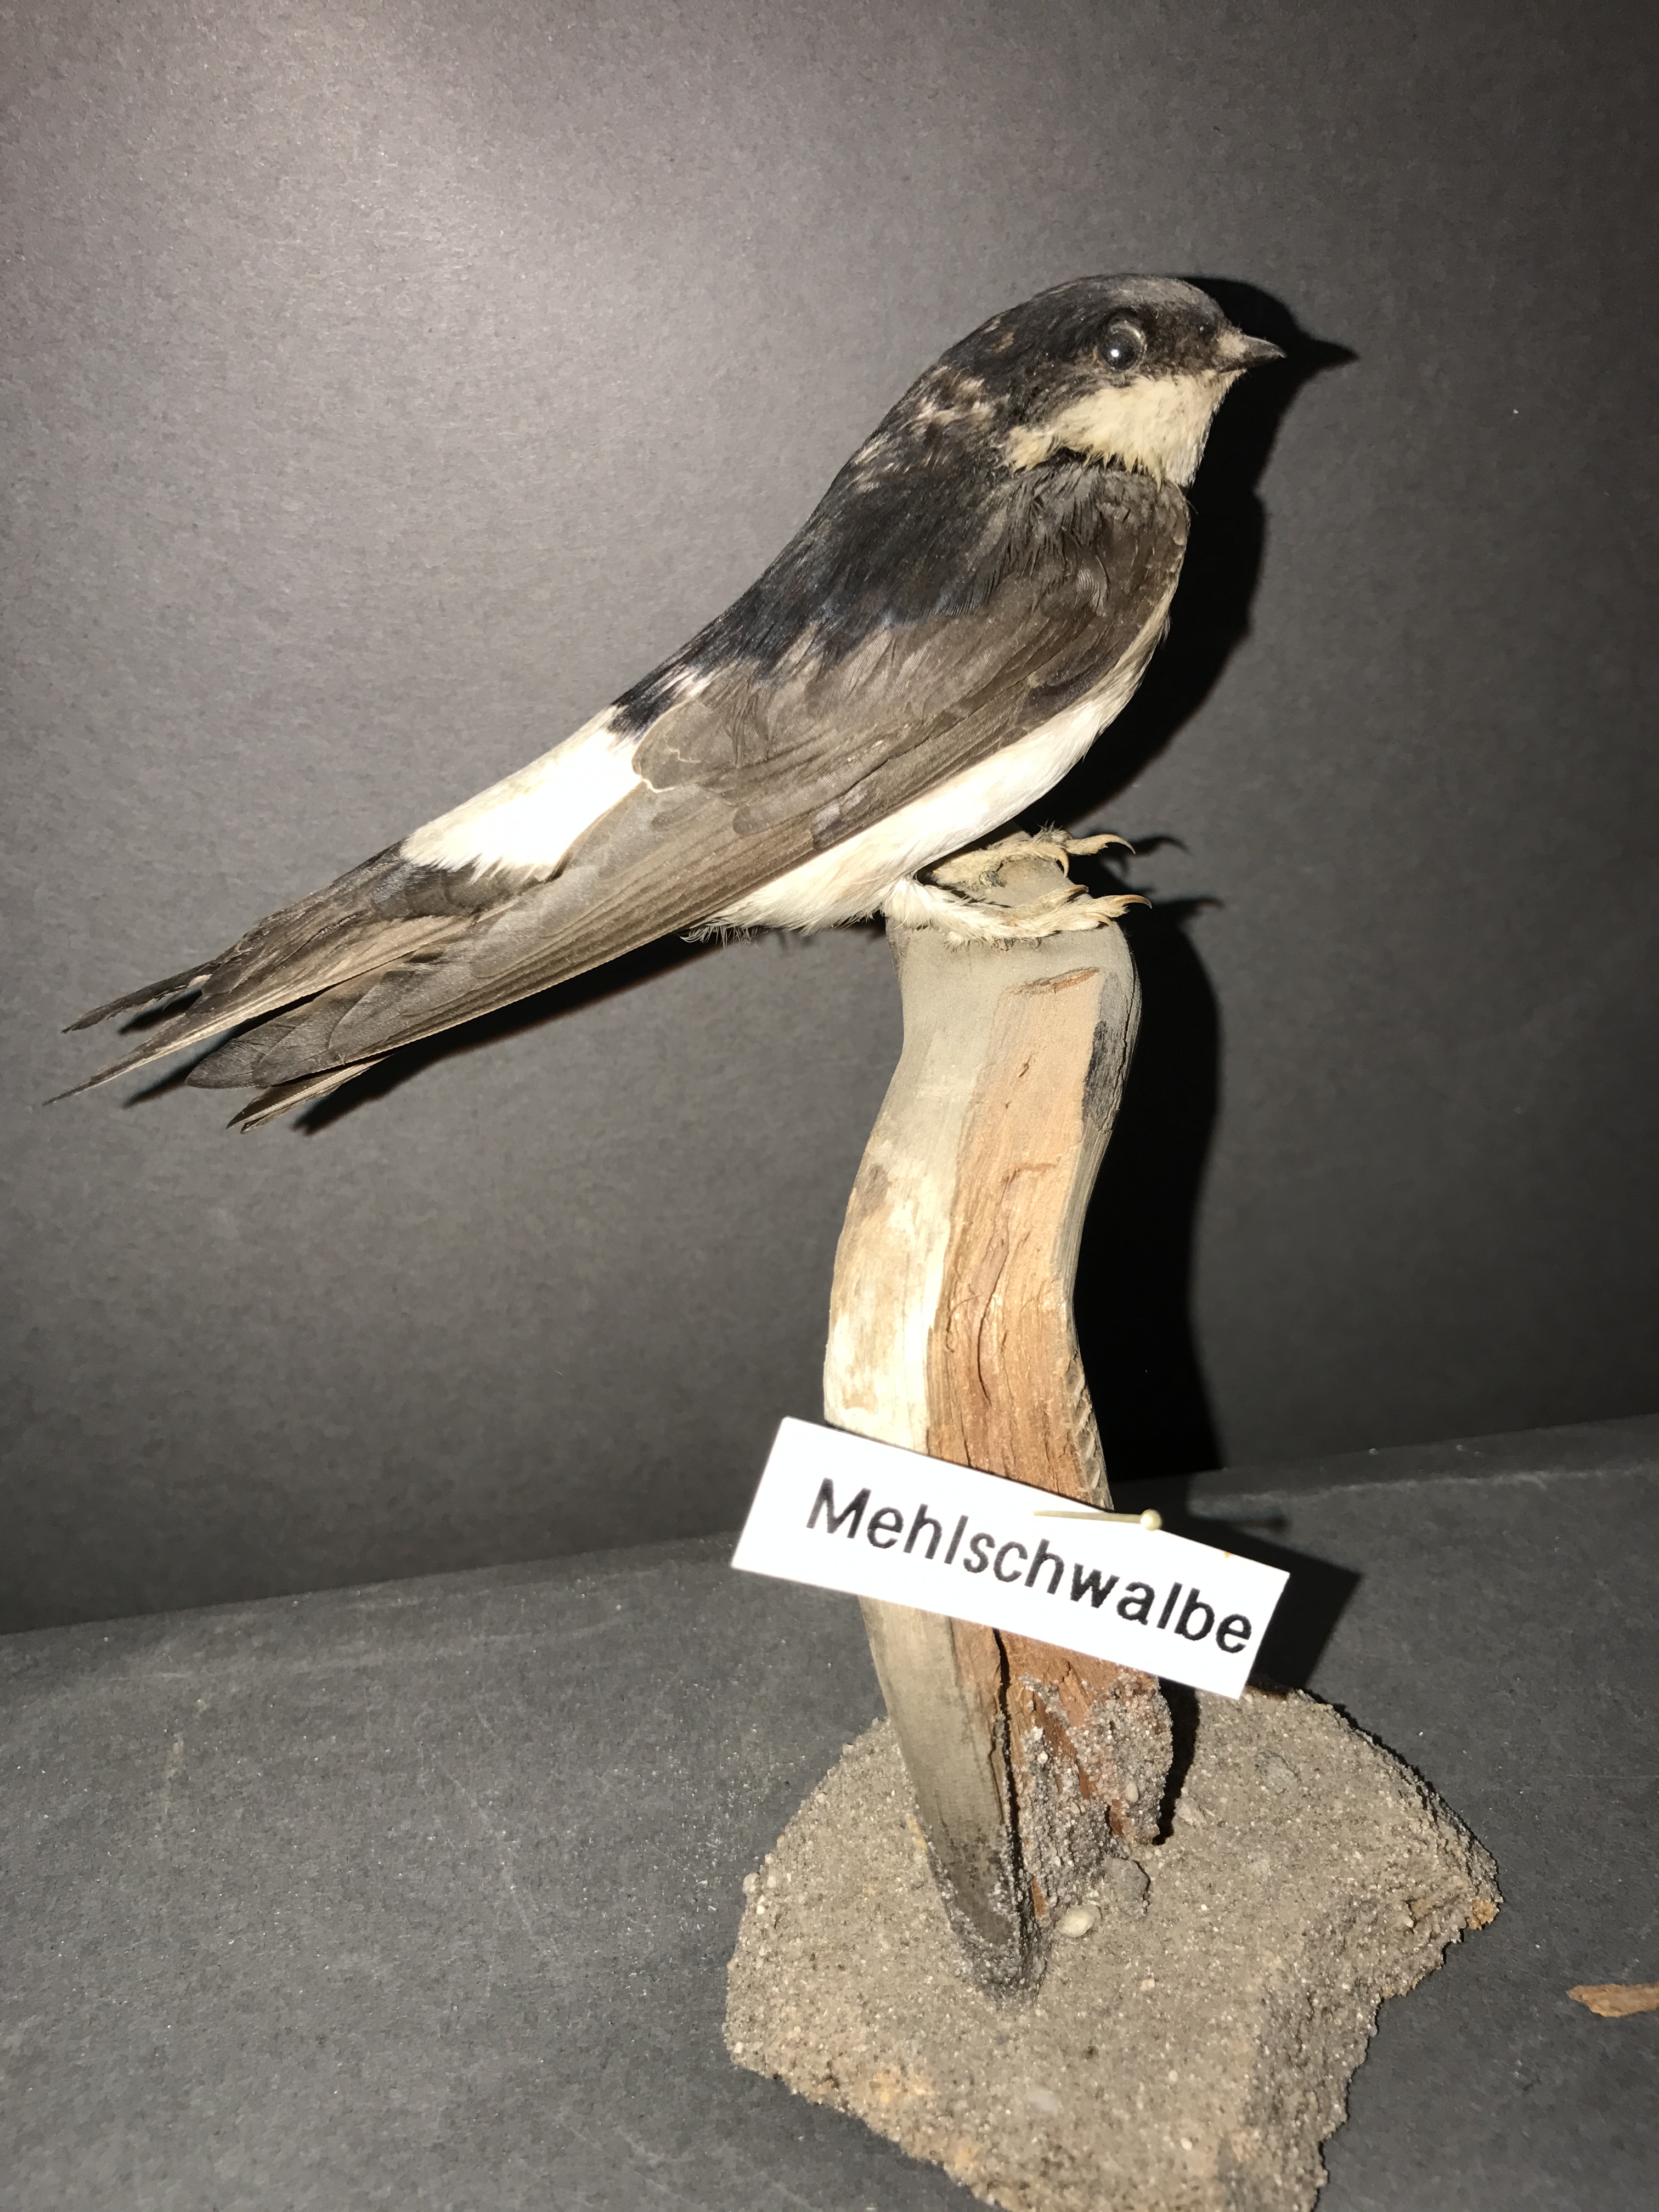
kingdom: Animalia
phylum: Chordata
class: Aves
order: Passeriformes
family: Hirundinidae
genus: Delichon
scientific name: Delichon urbicum
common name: Common house martin
